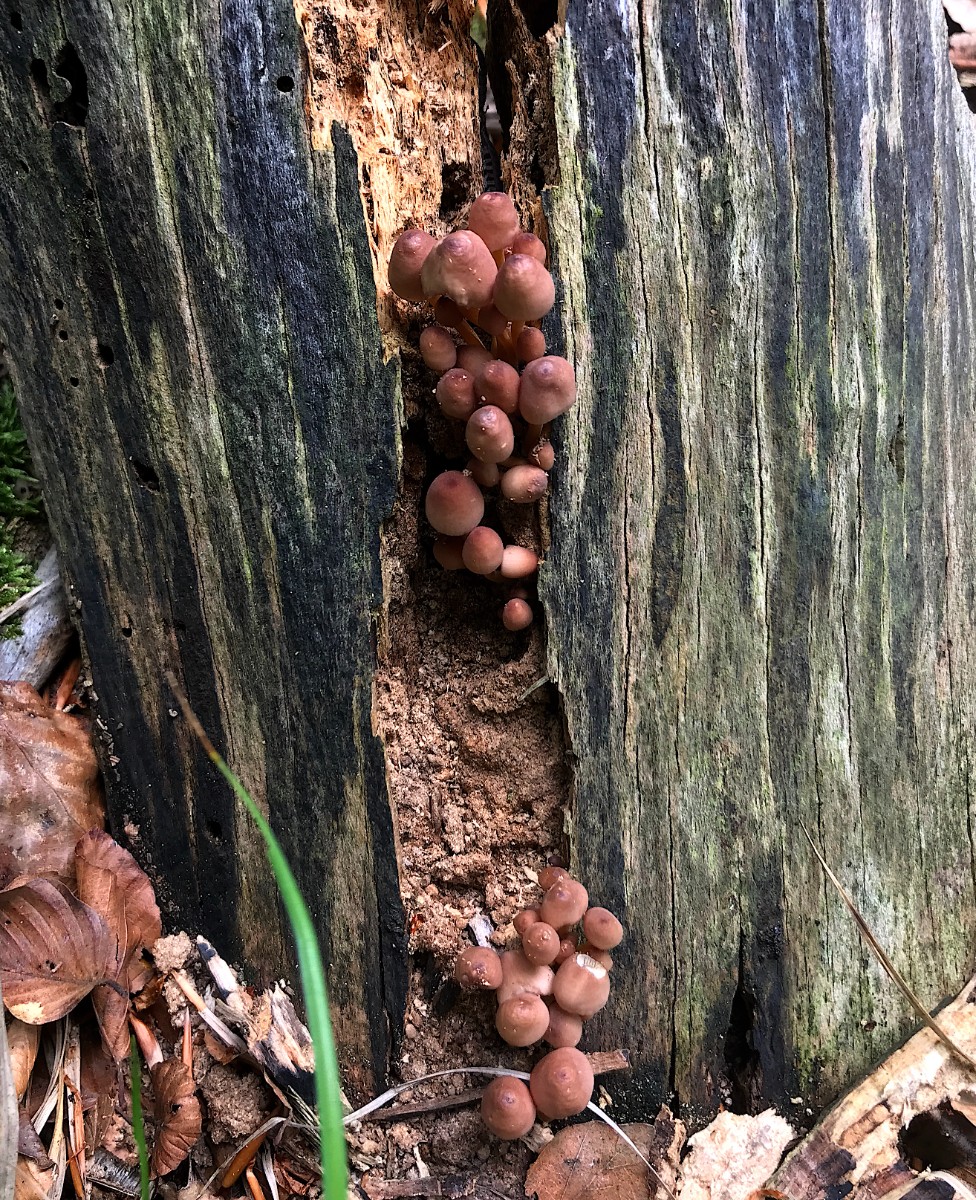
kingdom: Fungi
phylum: Basidiomycota
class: Agaricomycetes
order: Agaricales
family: Mycenaceae
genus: Mycena
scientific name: Mycena renati
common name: smuk huesvamp
